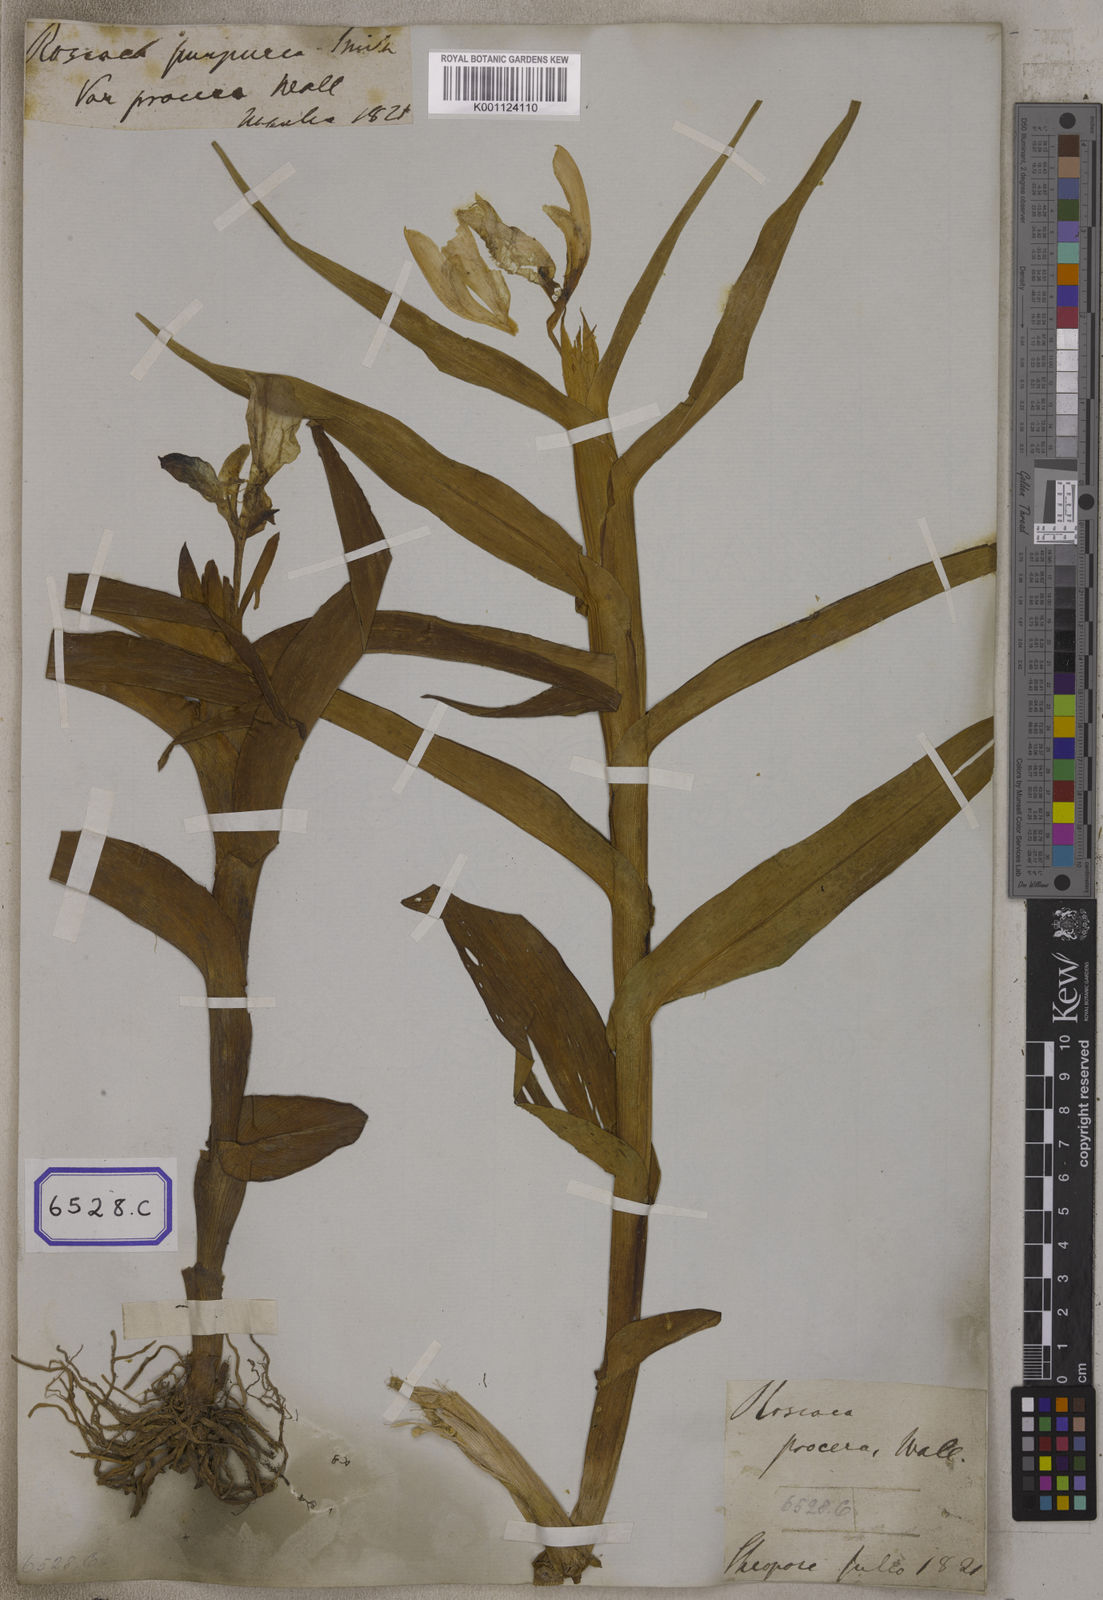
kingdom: Plantae
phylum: Tracheophyta
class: Liliopsida
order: Zingiberales
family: Zingiberaceae
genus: Roscoea
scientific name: Roscoea purpurea
